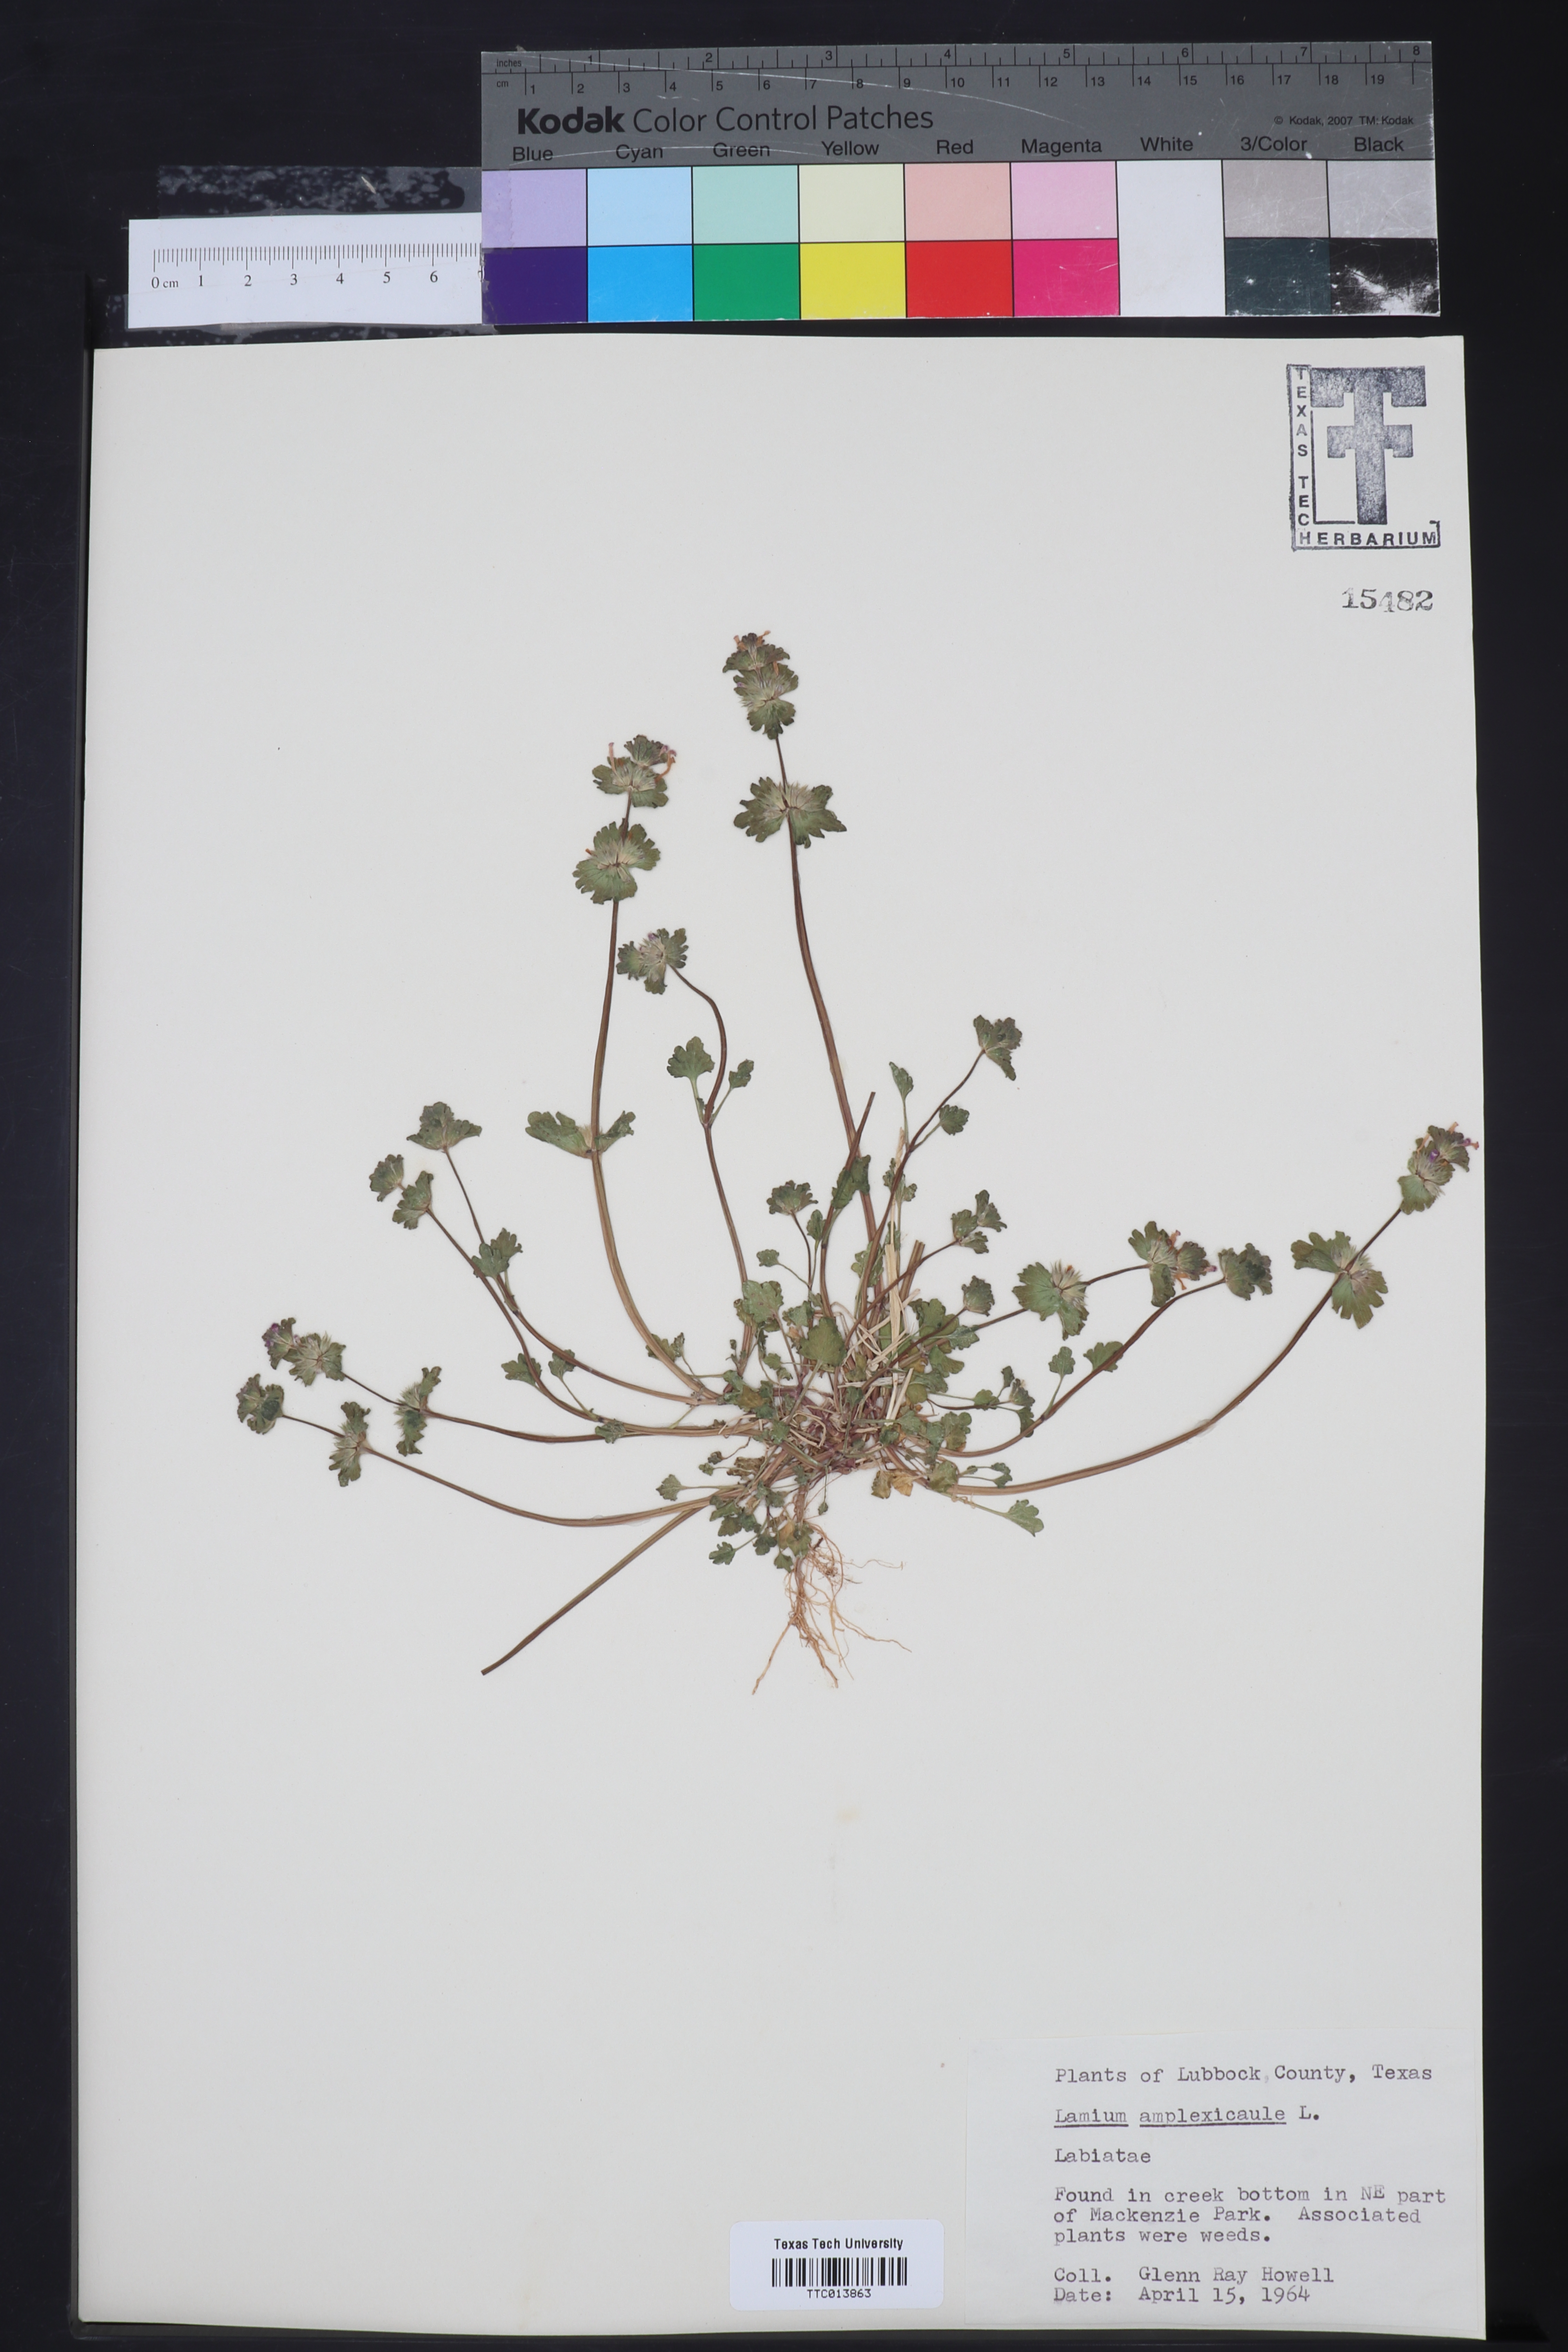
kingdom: Plantae
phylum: Tracheophyta
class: Magnoliopsida
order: Lamiales
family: Lamiaceae
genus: Lamium
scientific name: Lamium amplexicaule
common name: Henbit dead-nettle
